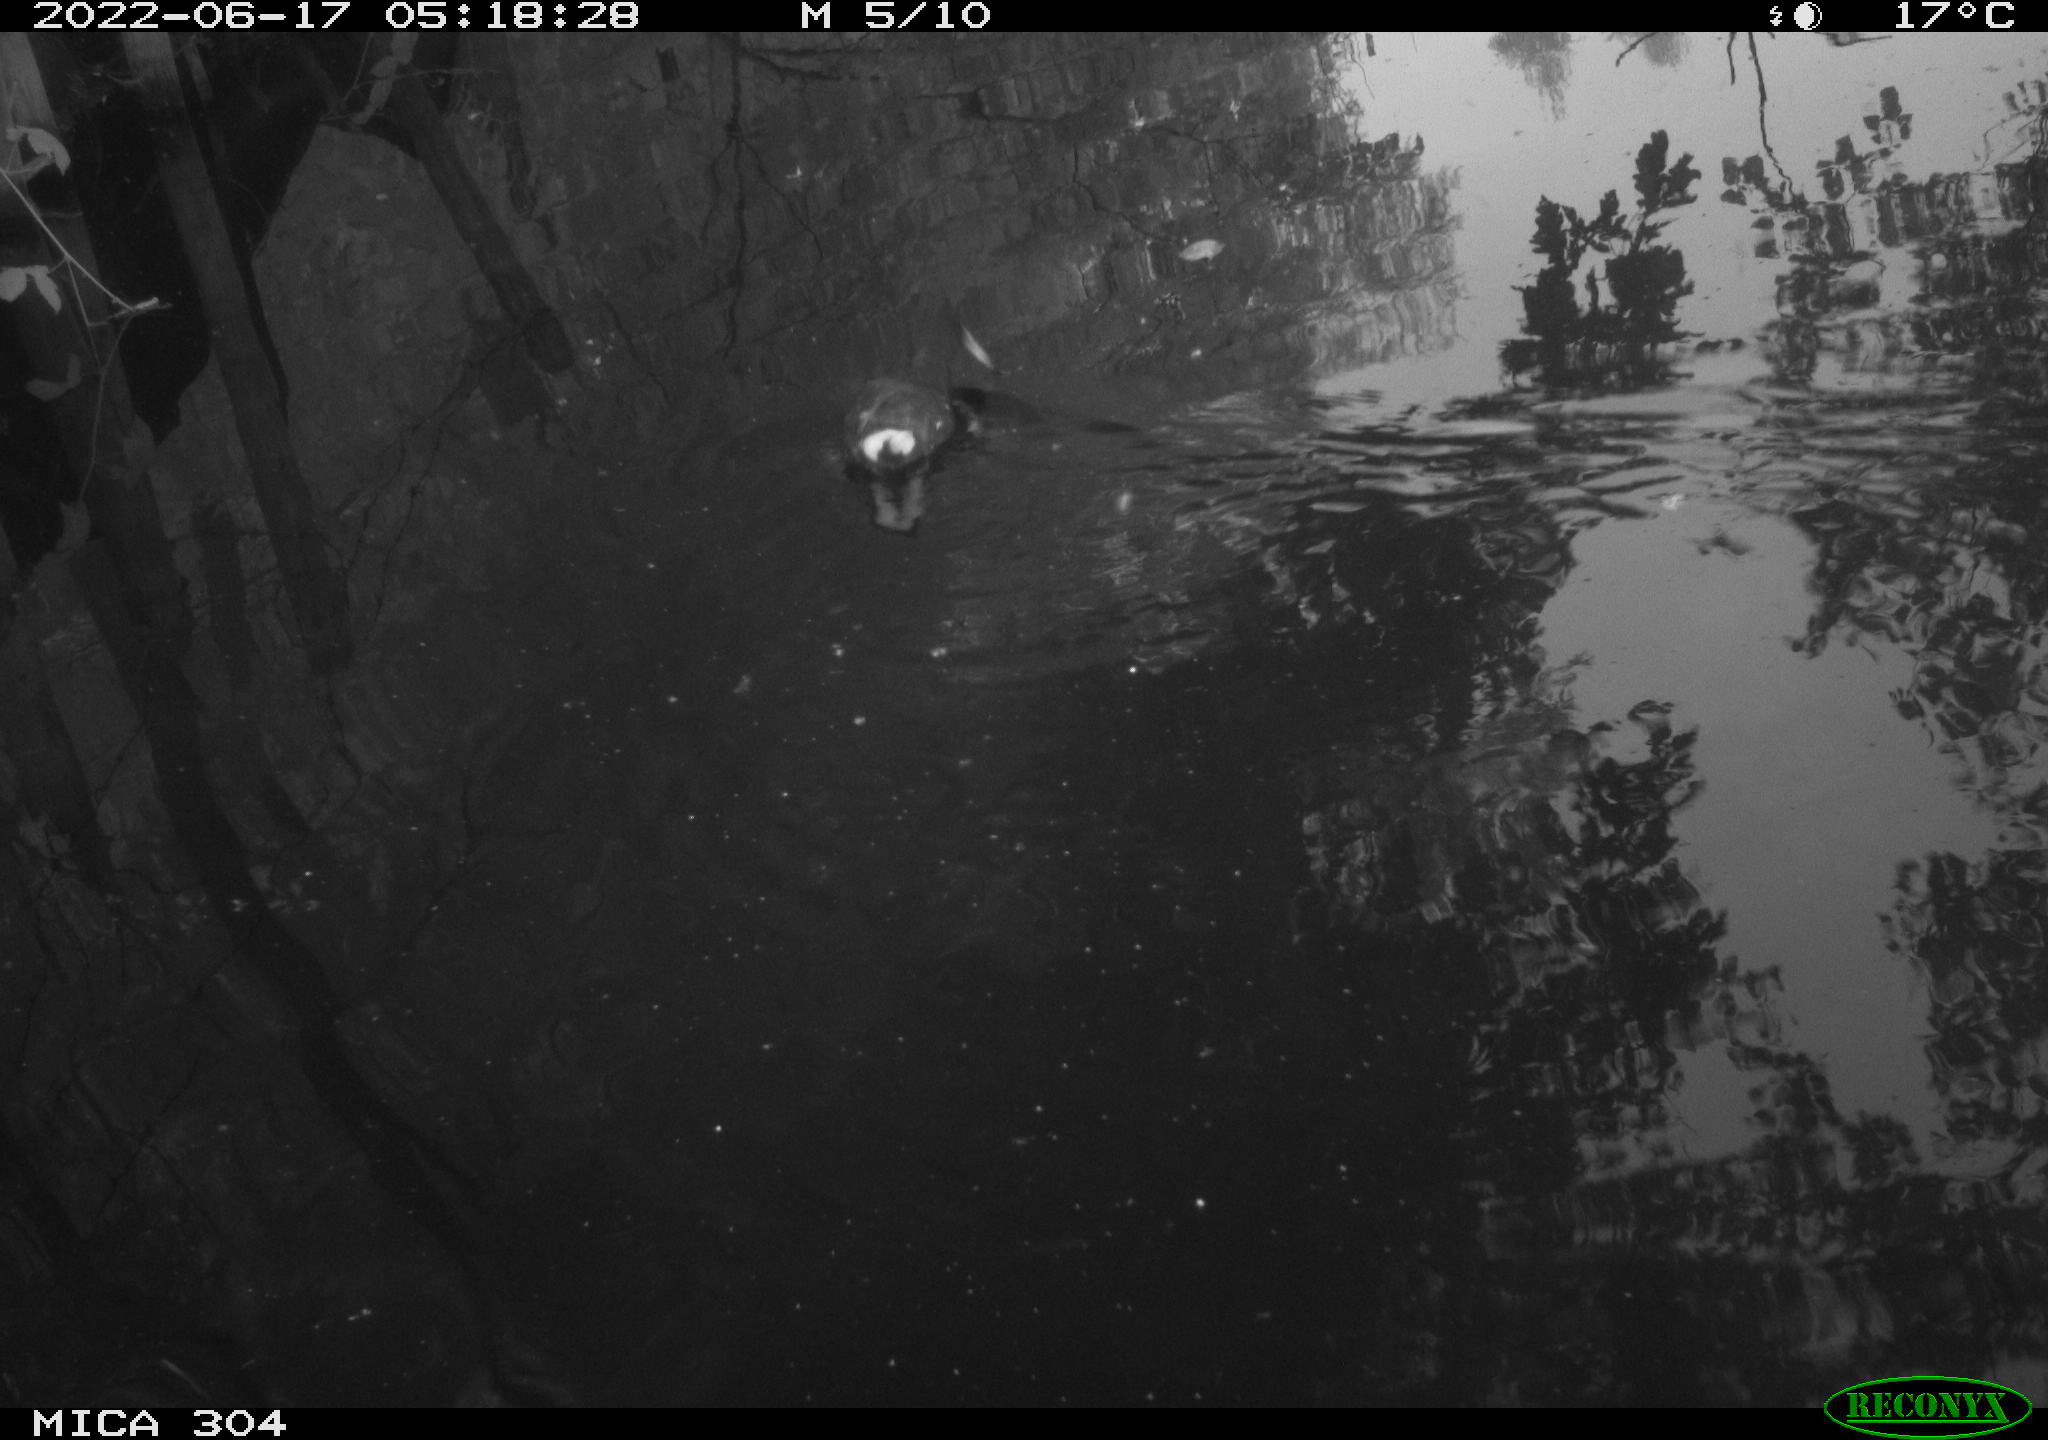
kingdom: Animalia
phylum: Chordata
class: Aves
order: Gruiformes
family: Rallidae
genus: Gallinula
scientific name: Gallinula chloropus
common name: Common moorhen
